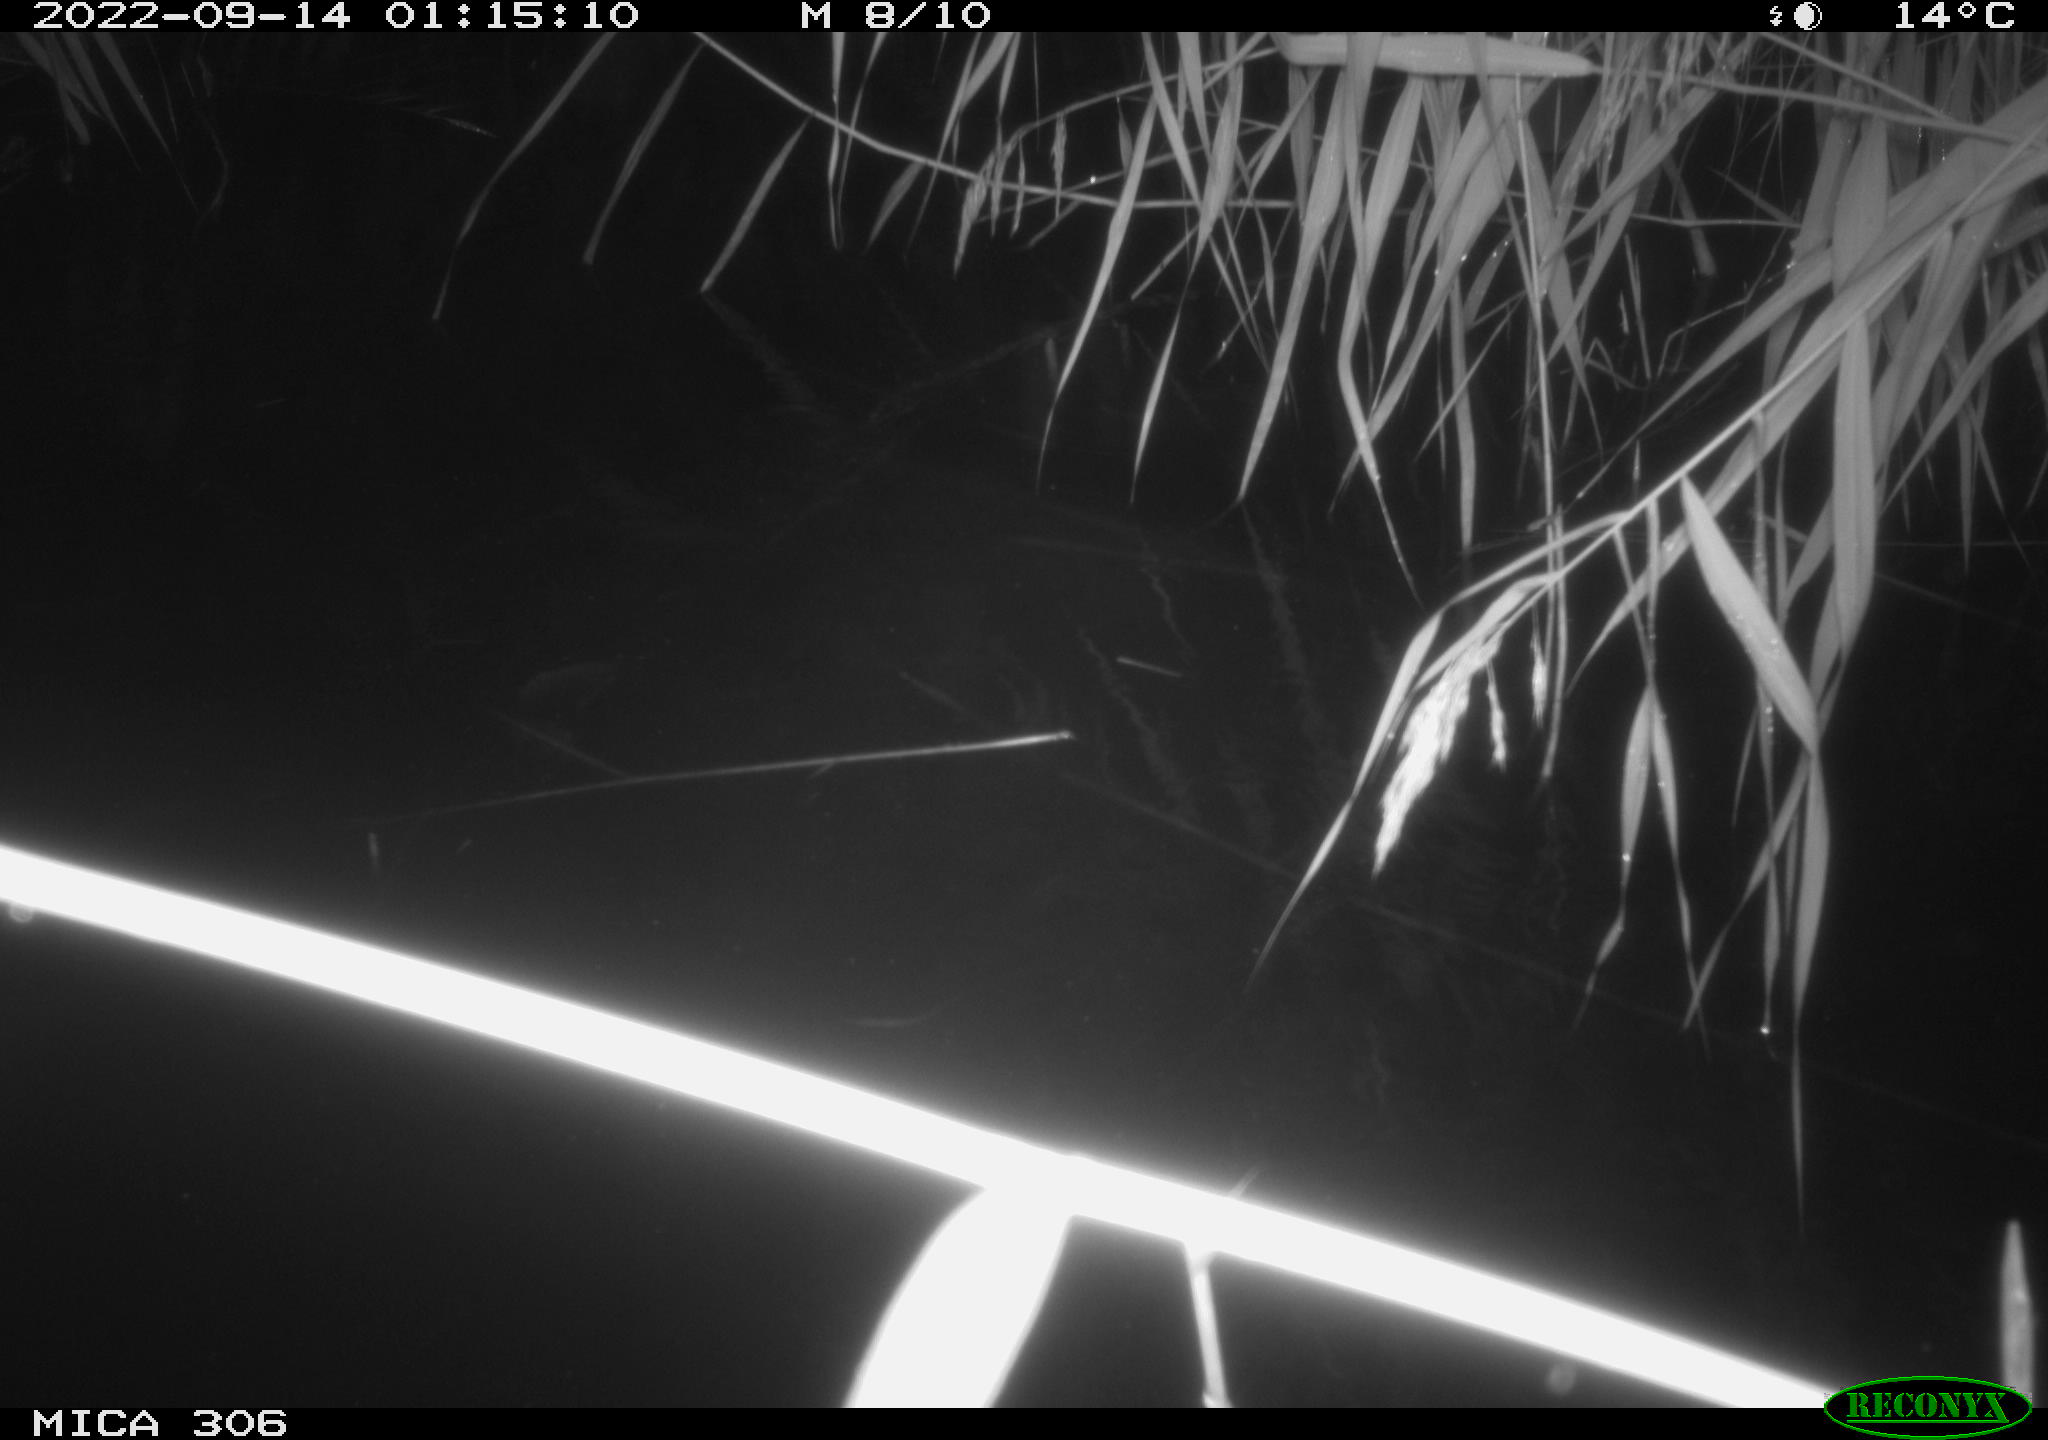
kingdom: Animalia
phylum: Chordata
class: Mammalia
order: Rodentia
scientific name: Rodentia
